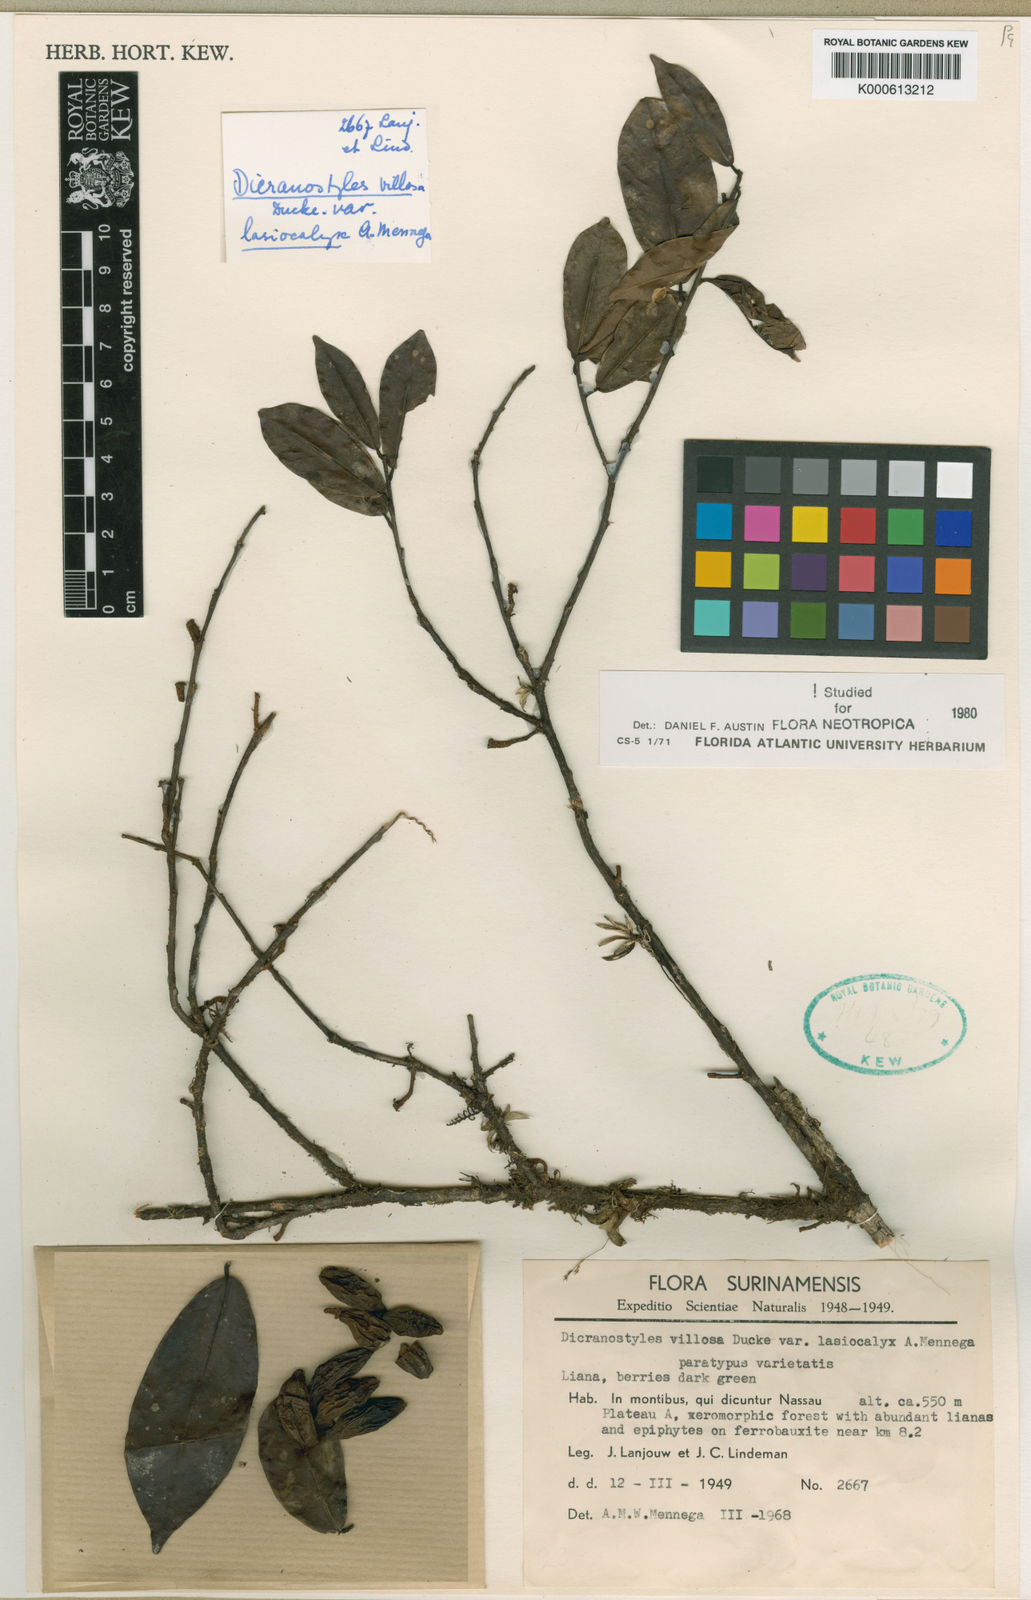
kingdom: Plantae
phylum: Tracheophyta
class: Magnoliopsida
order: Solanales
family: Convolvulaceae
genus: Dicranostyles
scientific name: Dicranostyles villosa
